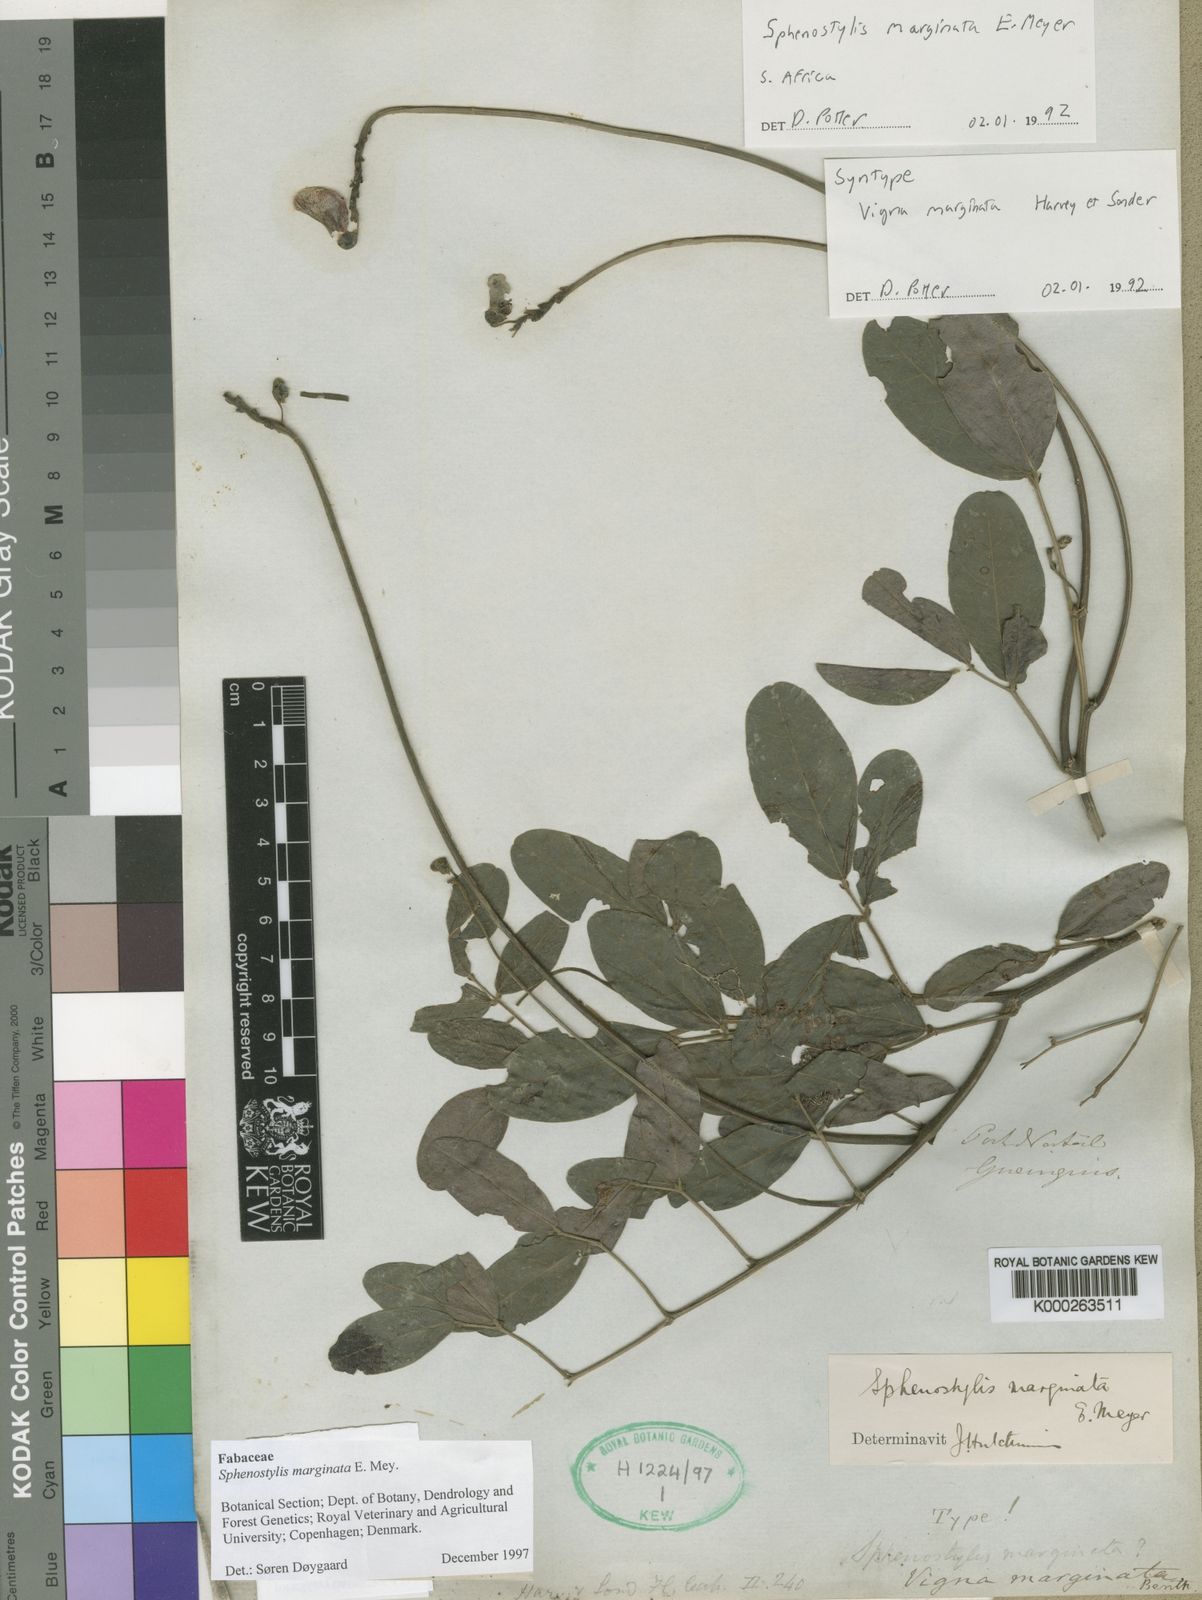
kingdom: Plantae
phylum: Tracheophyta
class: Magnoliopsida
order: Fabales
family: Fabaceae
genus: Sphenostylis
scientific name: Sphenostylis marginata
